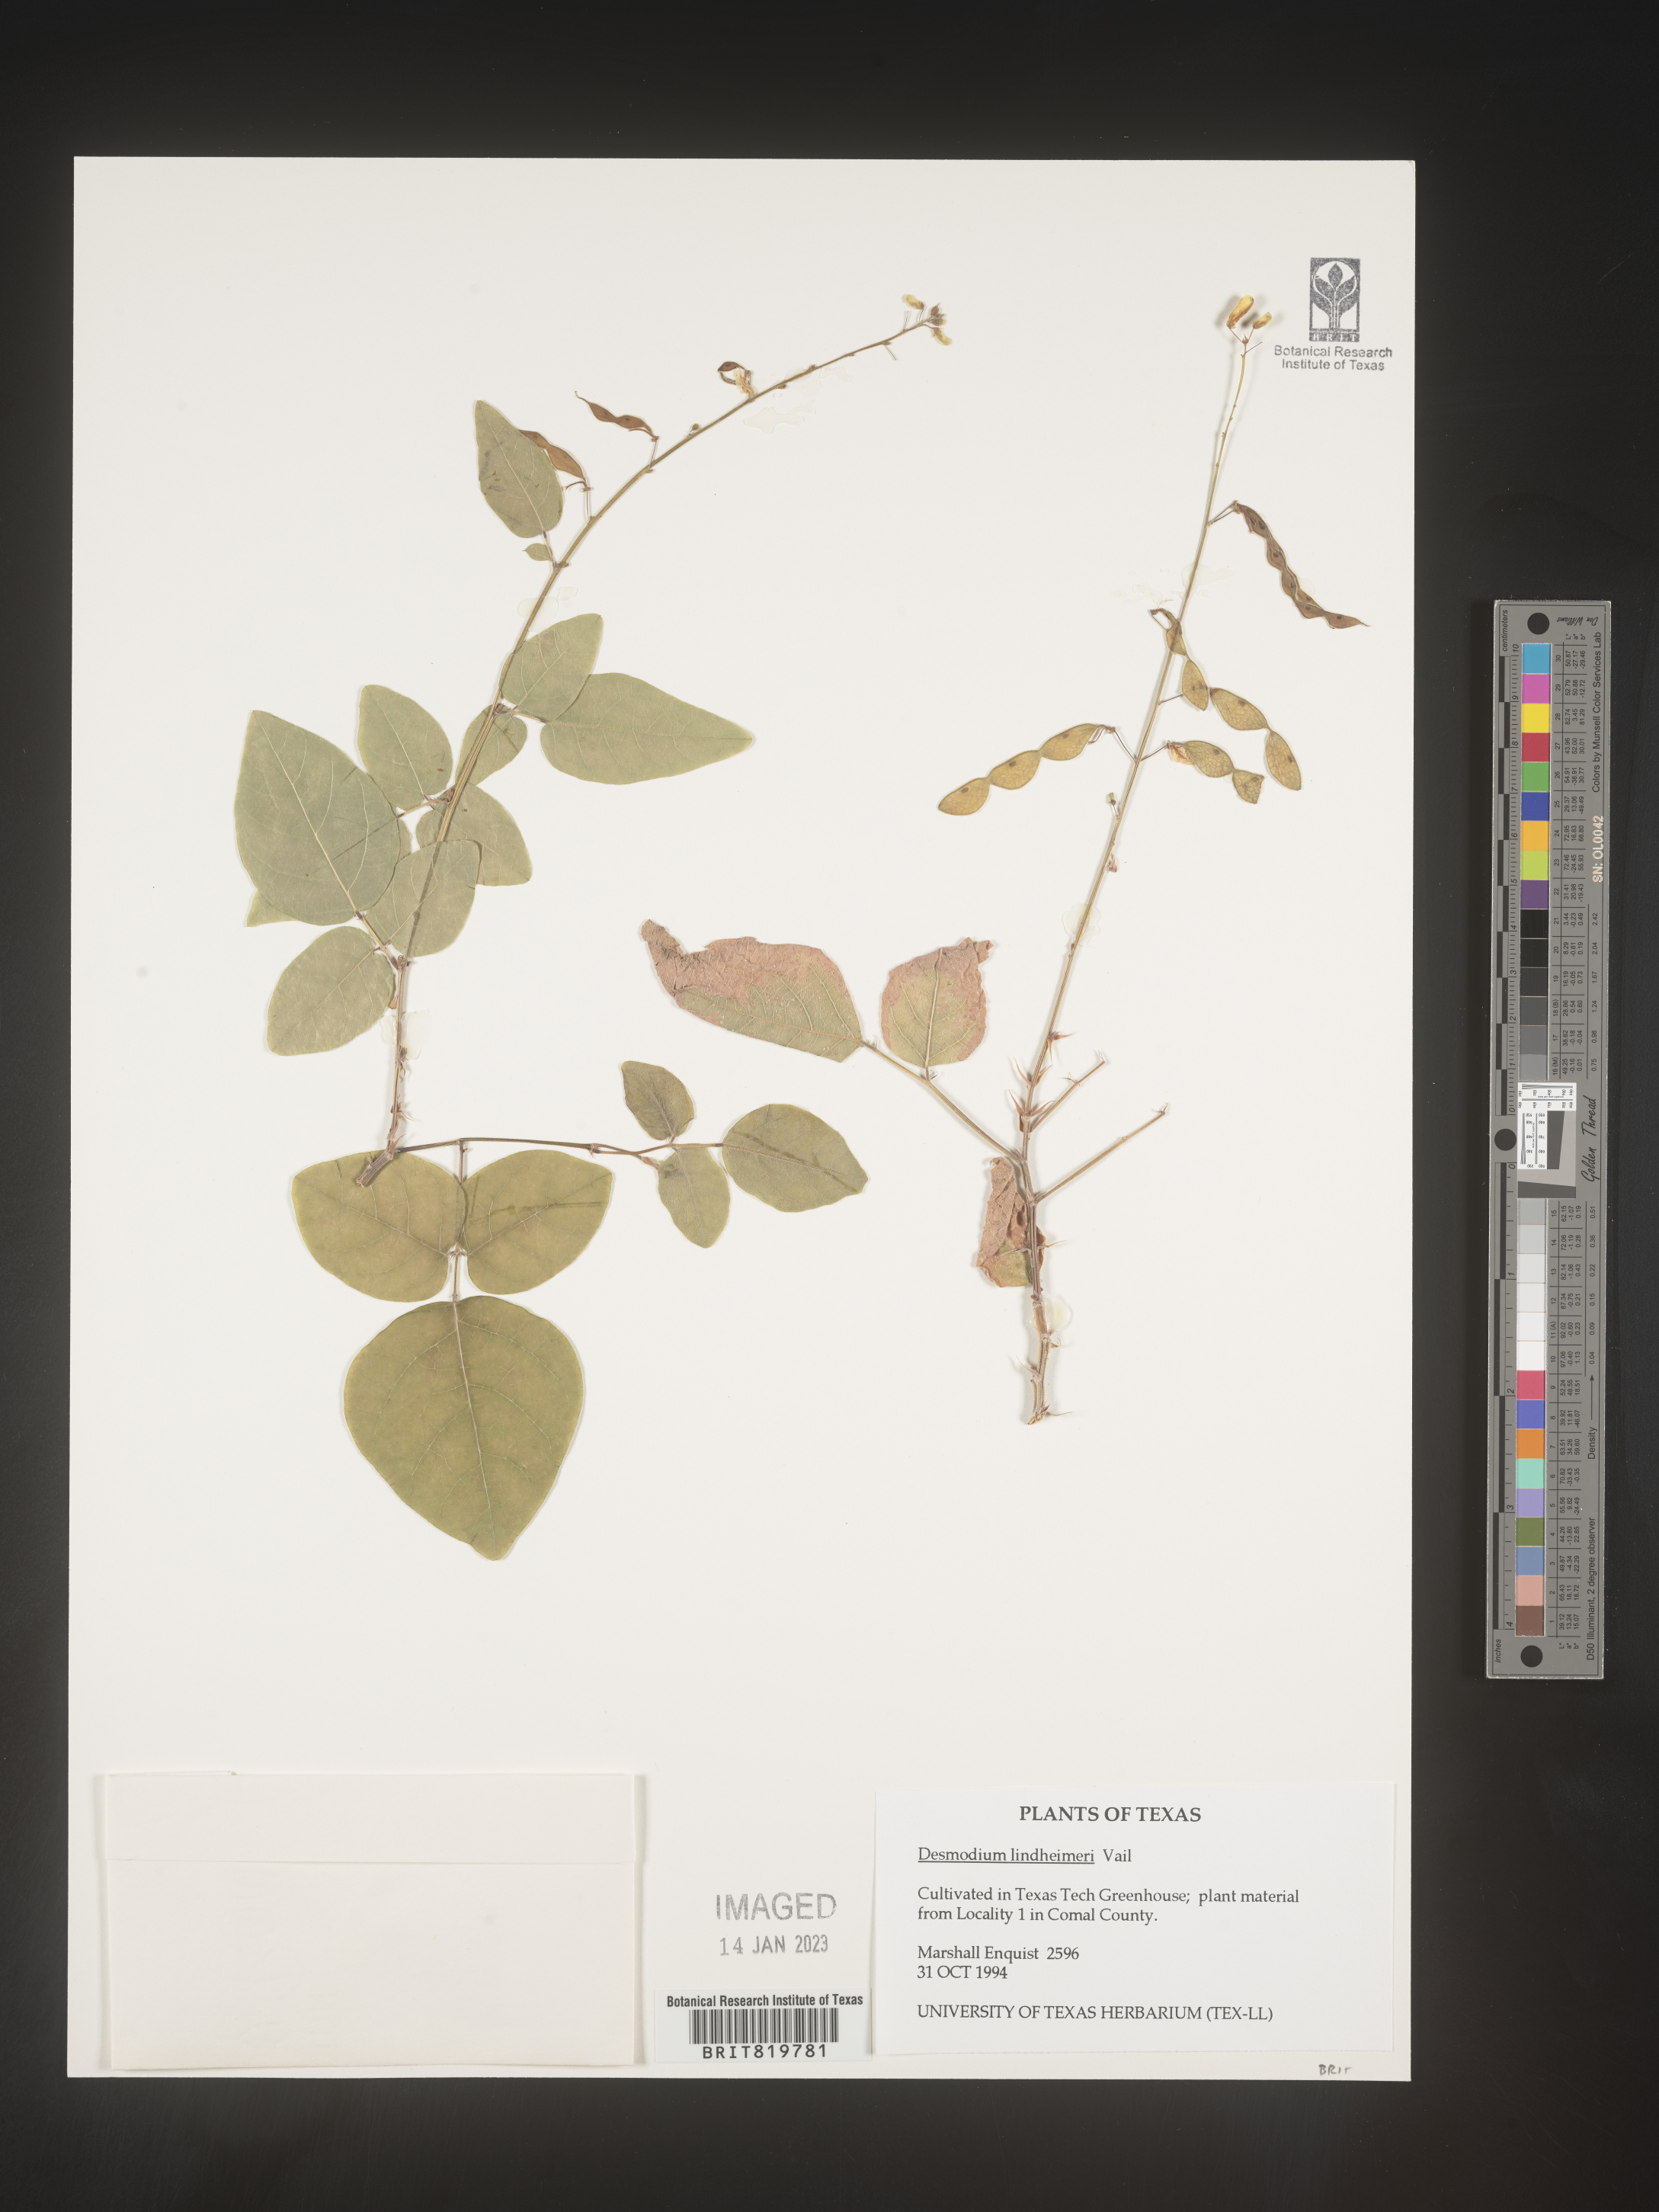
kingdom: Plantae
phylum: Tracheophyta
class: Magnoliopsida
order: Fabales
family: Fabaceae
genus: Desmodium
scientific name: Desmodium
